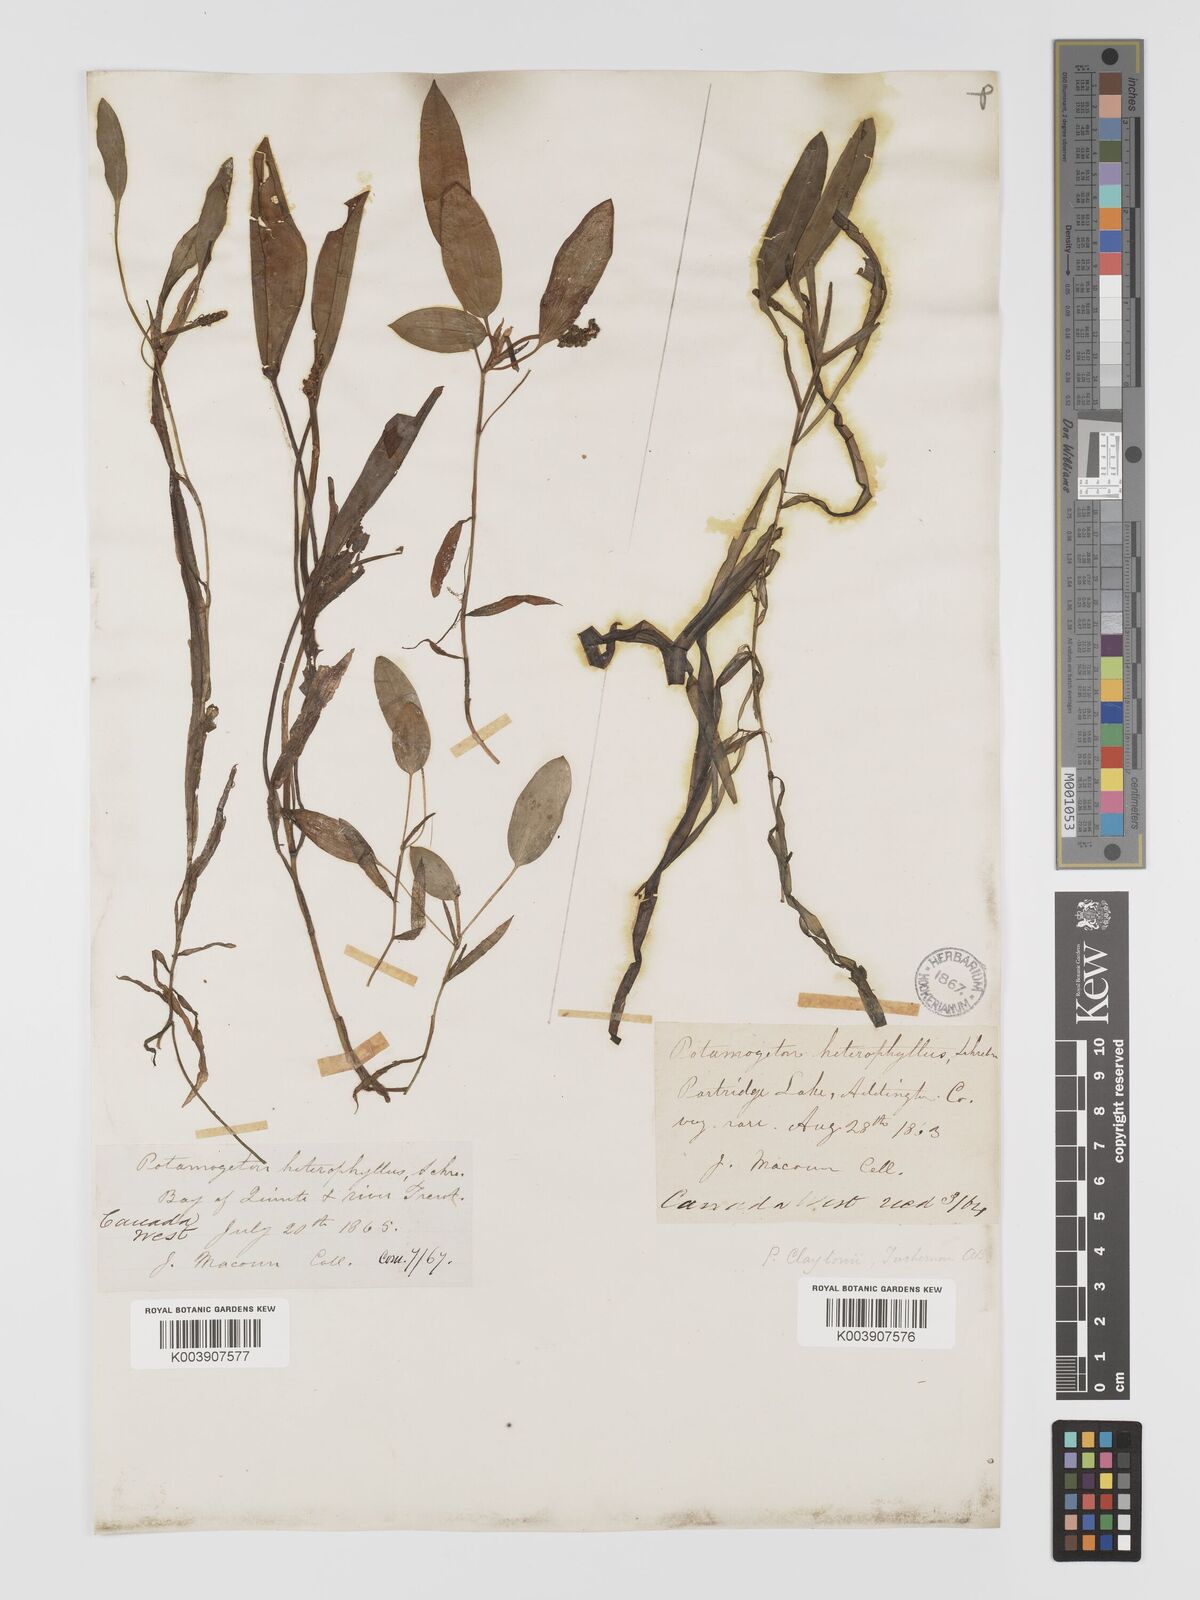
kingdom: Plantae
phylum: Tracheophyta
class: Liliopsida
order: Alismatales
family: Potamogetonaceae
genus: Potamogeton
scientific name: Potamogeton epihydrus
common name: American pondweed
